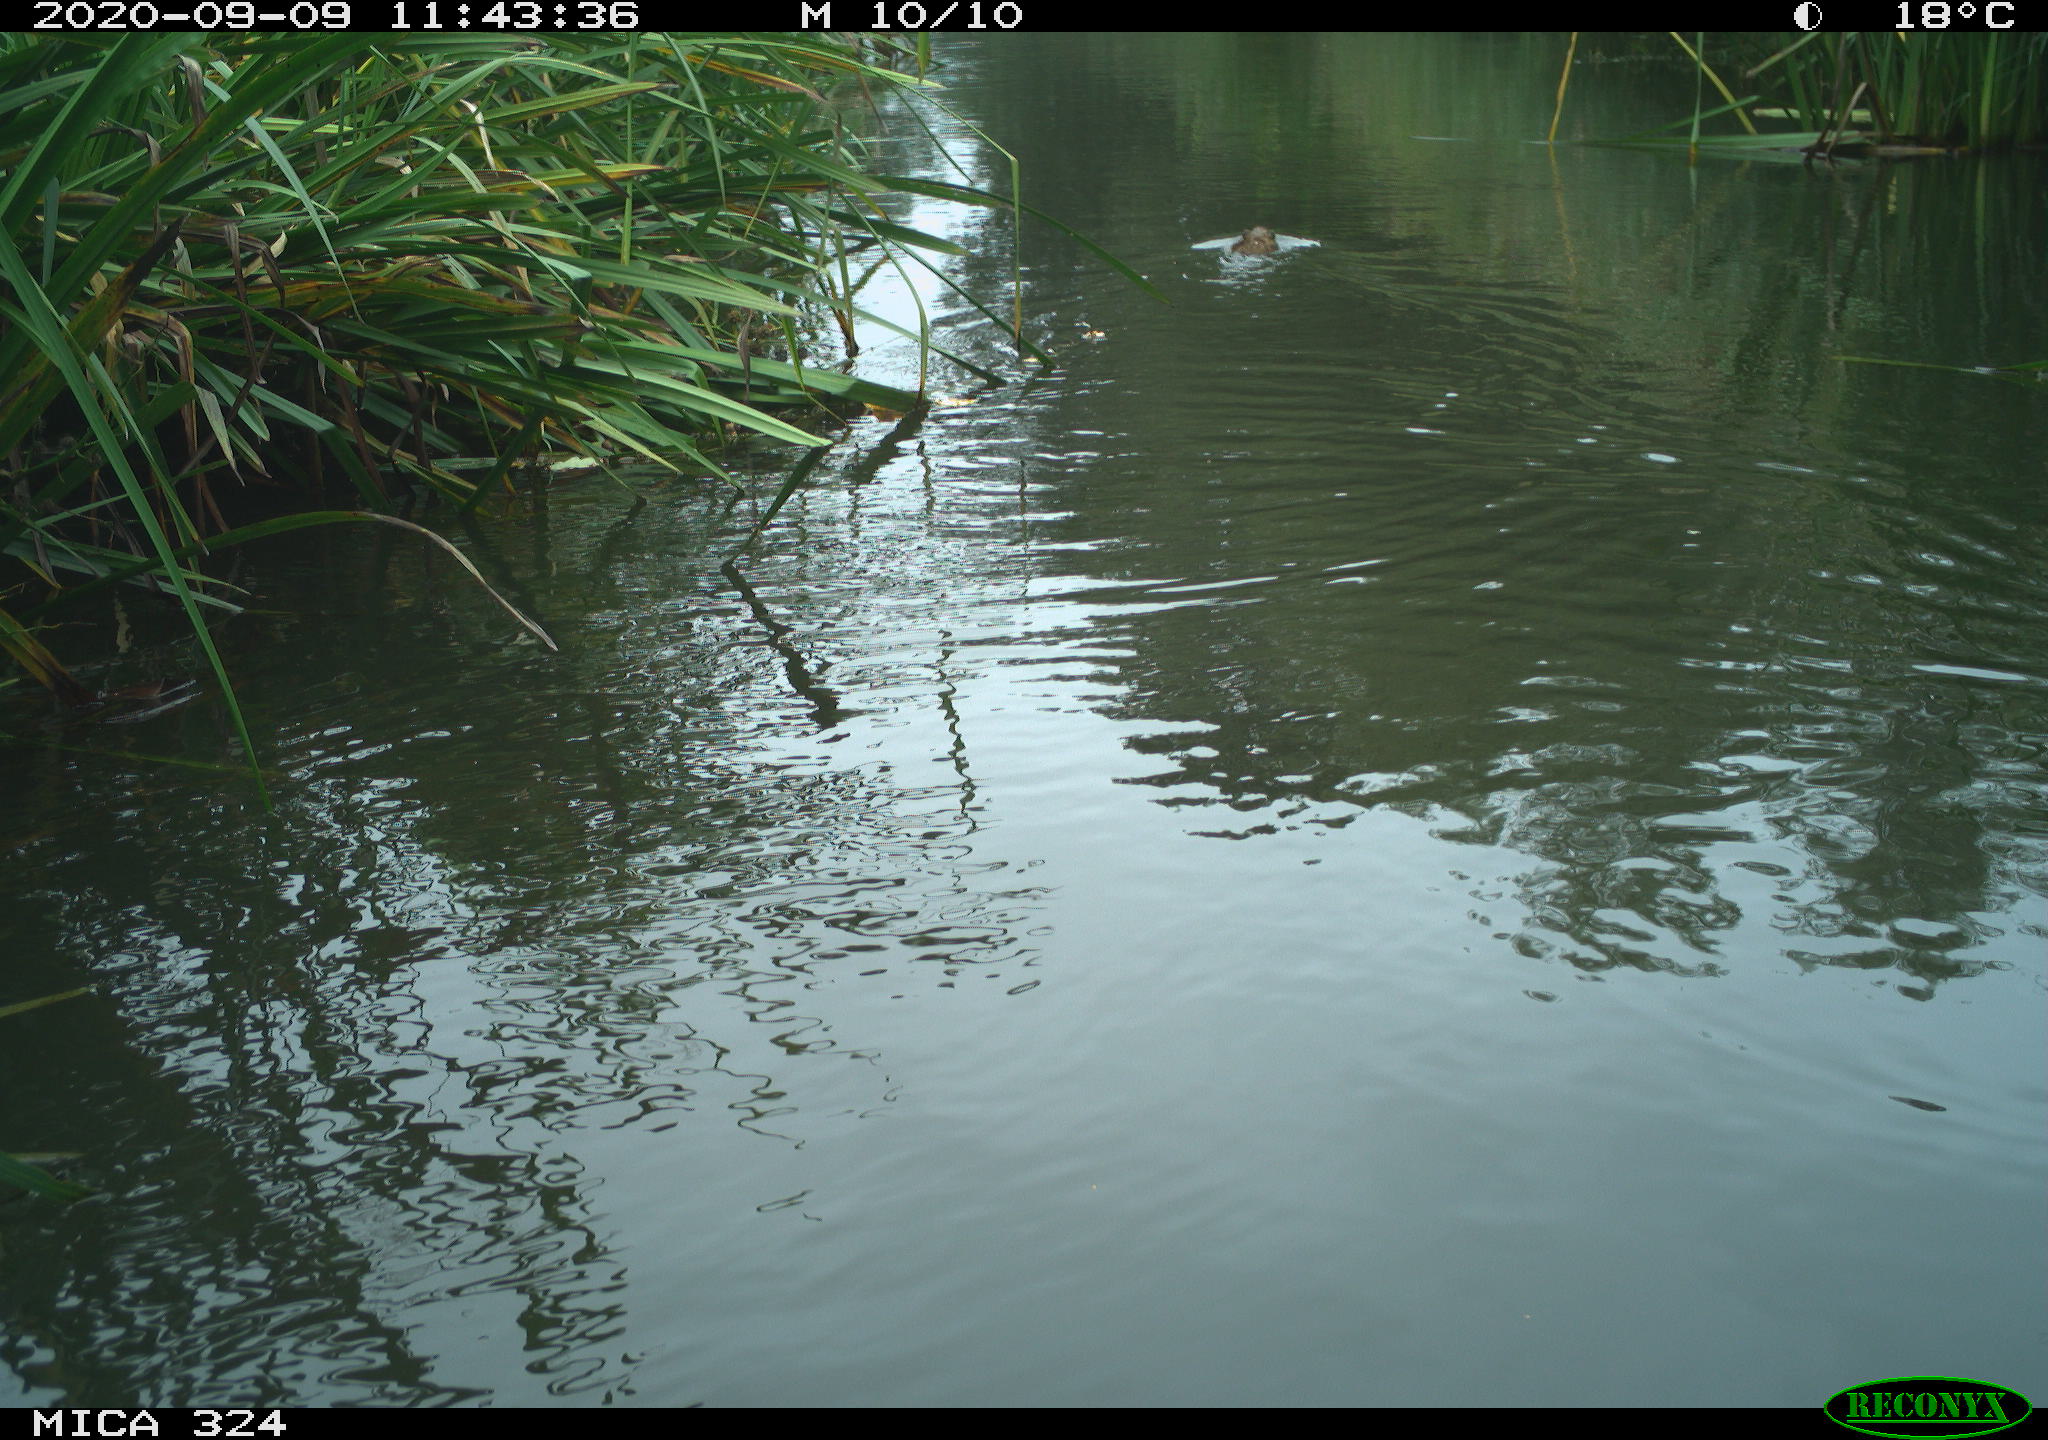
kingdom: Animalia
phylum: Chordata
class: Mammalia
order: Rodentia
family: Cricetidae
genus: Ondatra
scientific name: Ondatra zibethicus
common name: Muskrat
